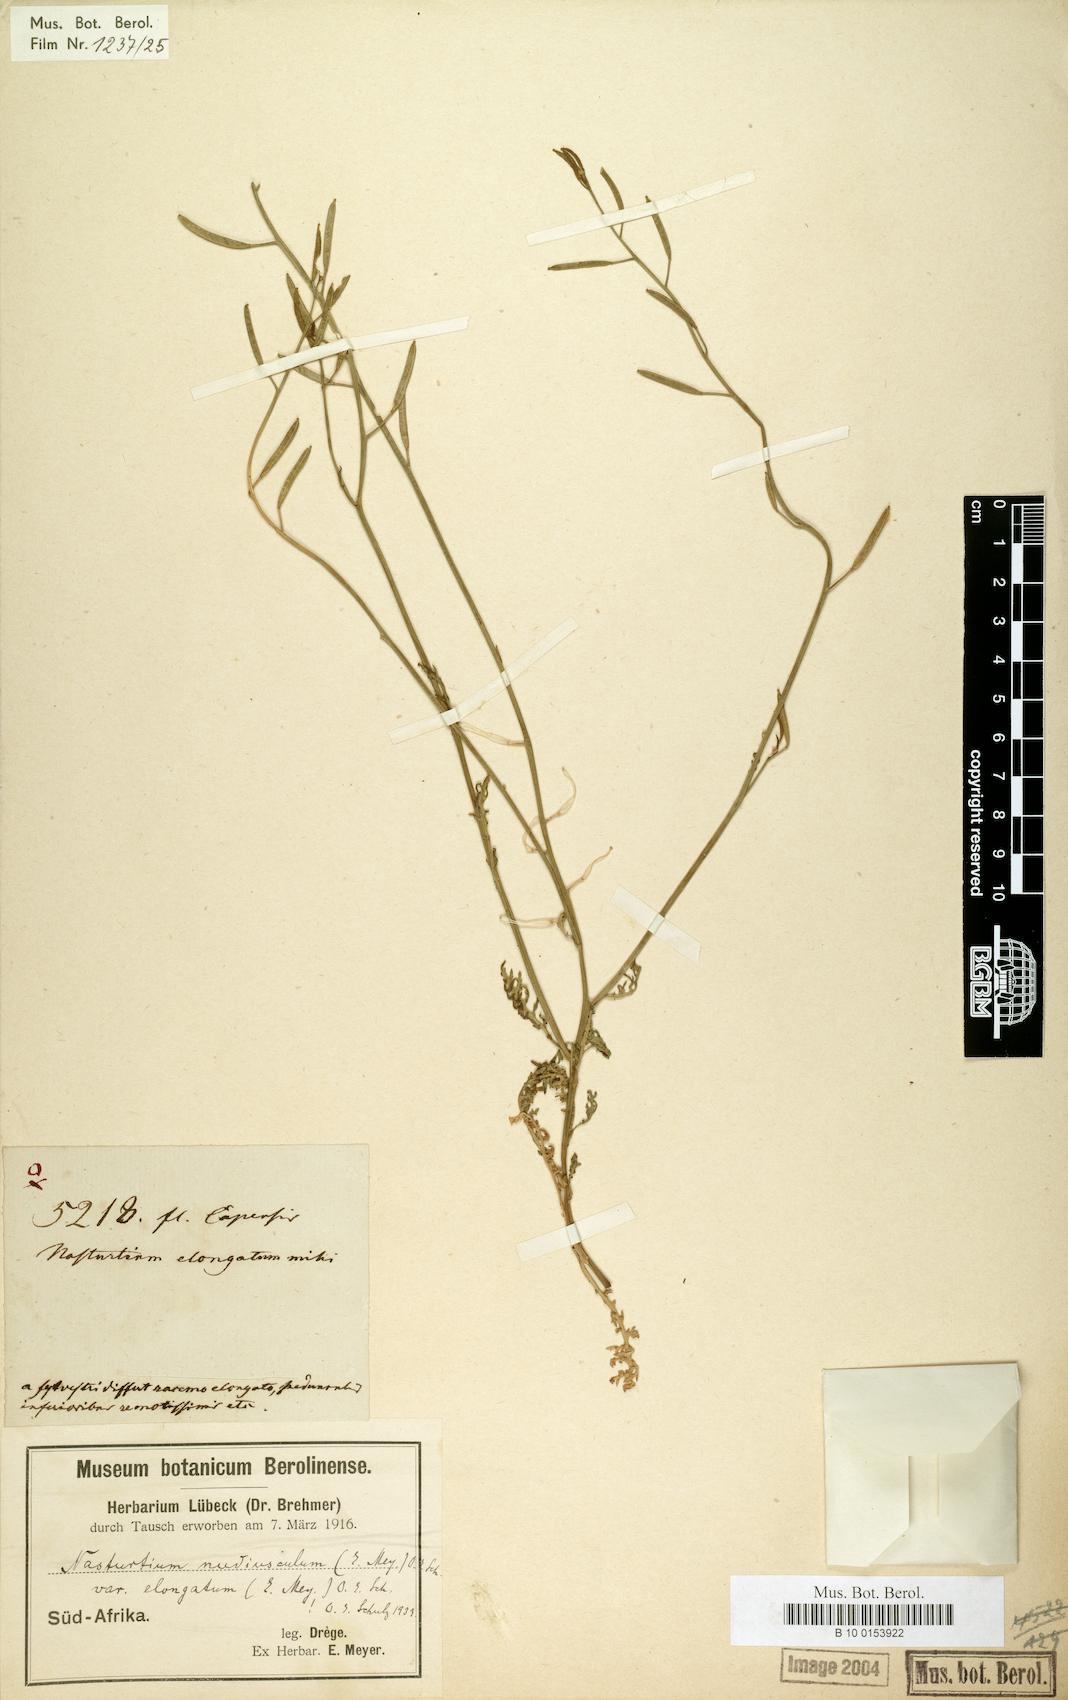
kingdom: Plantae
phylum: Tracheophyta
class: Magnoliopsida
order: Brassicales
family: Brassicaceae
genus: Rorippa
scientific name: Rorippa nudiuscula
